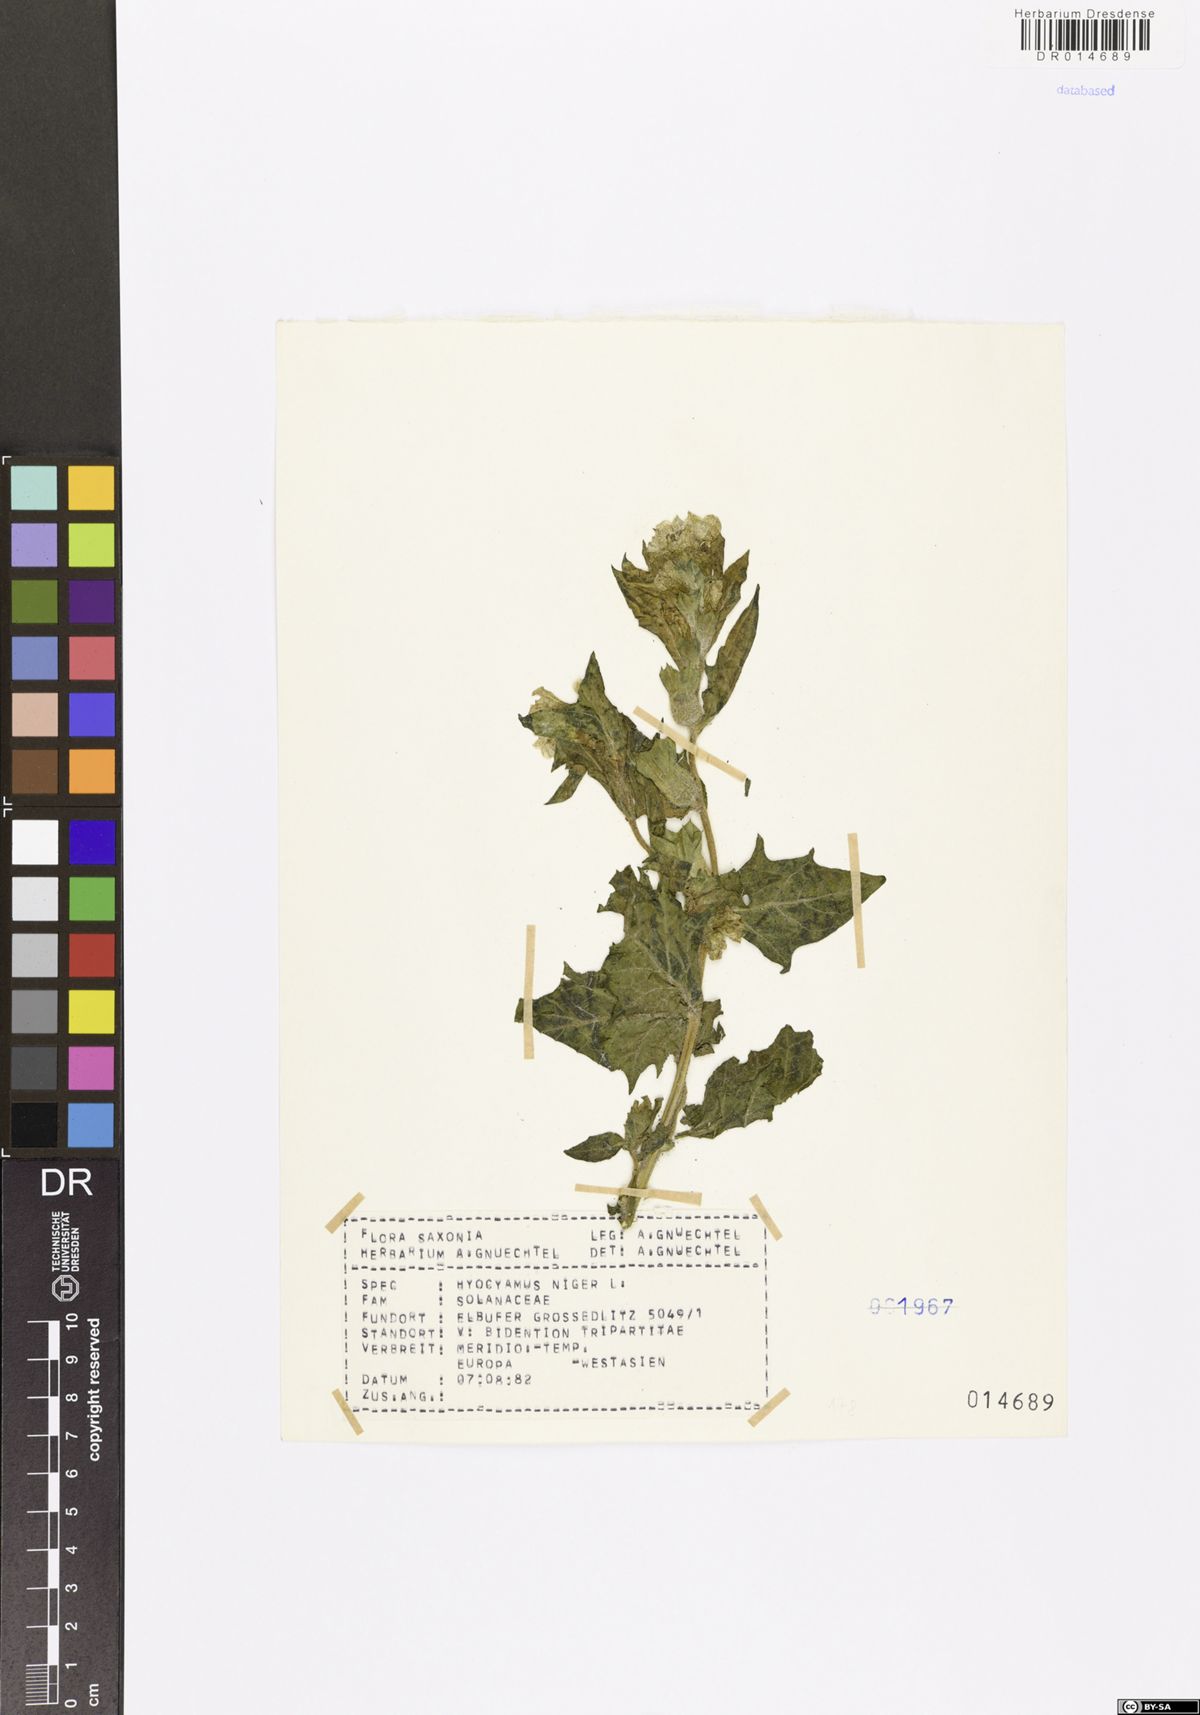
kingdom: Plantae
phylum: Tracheophyta
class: Magnoliopsida
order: Solanales
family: Solanaceae
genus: Hyoscyamus
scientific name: Hyoscyamus niger
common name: Henbane
